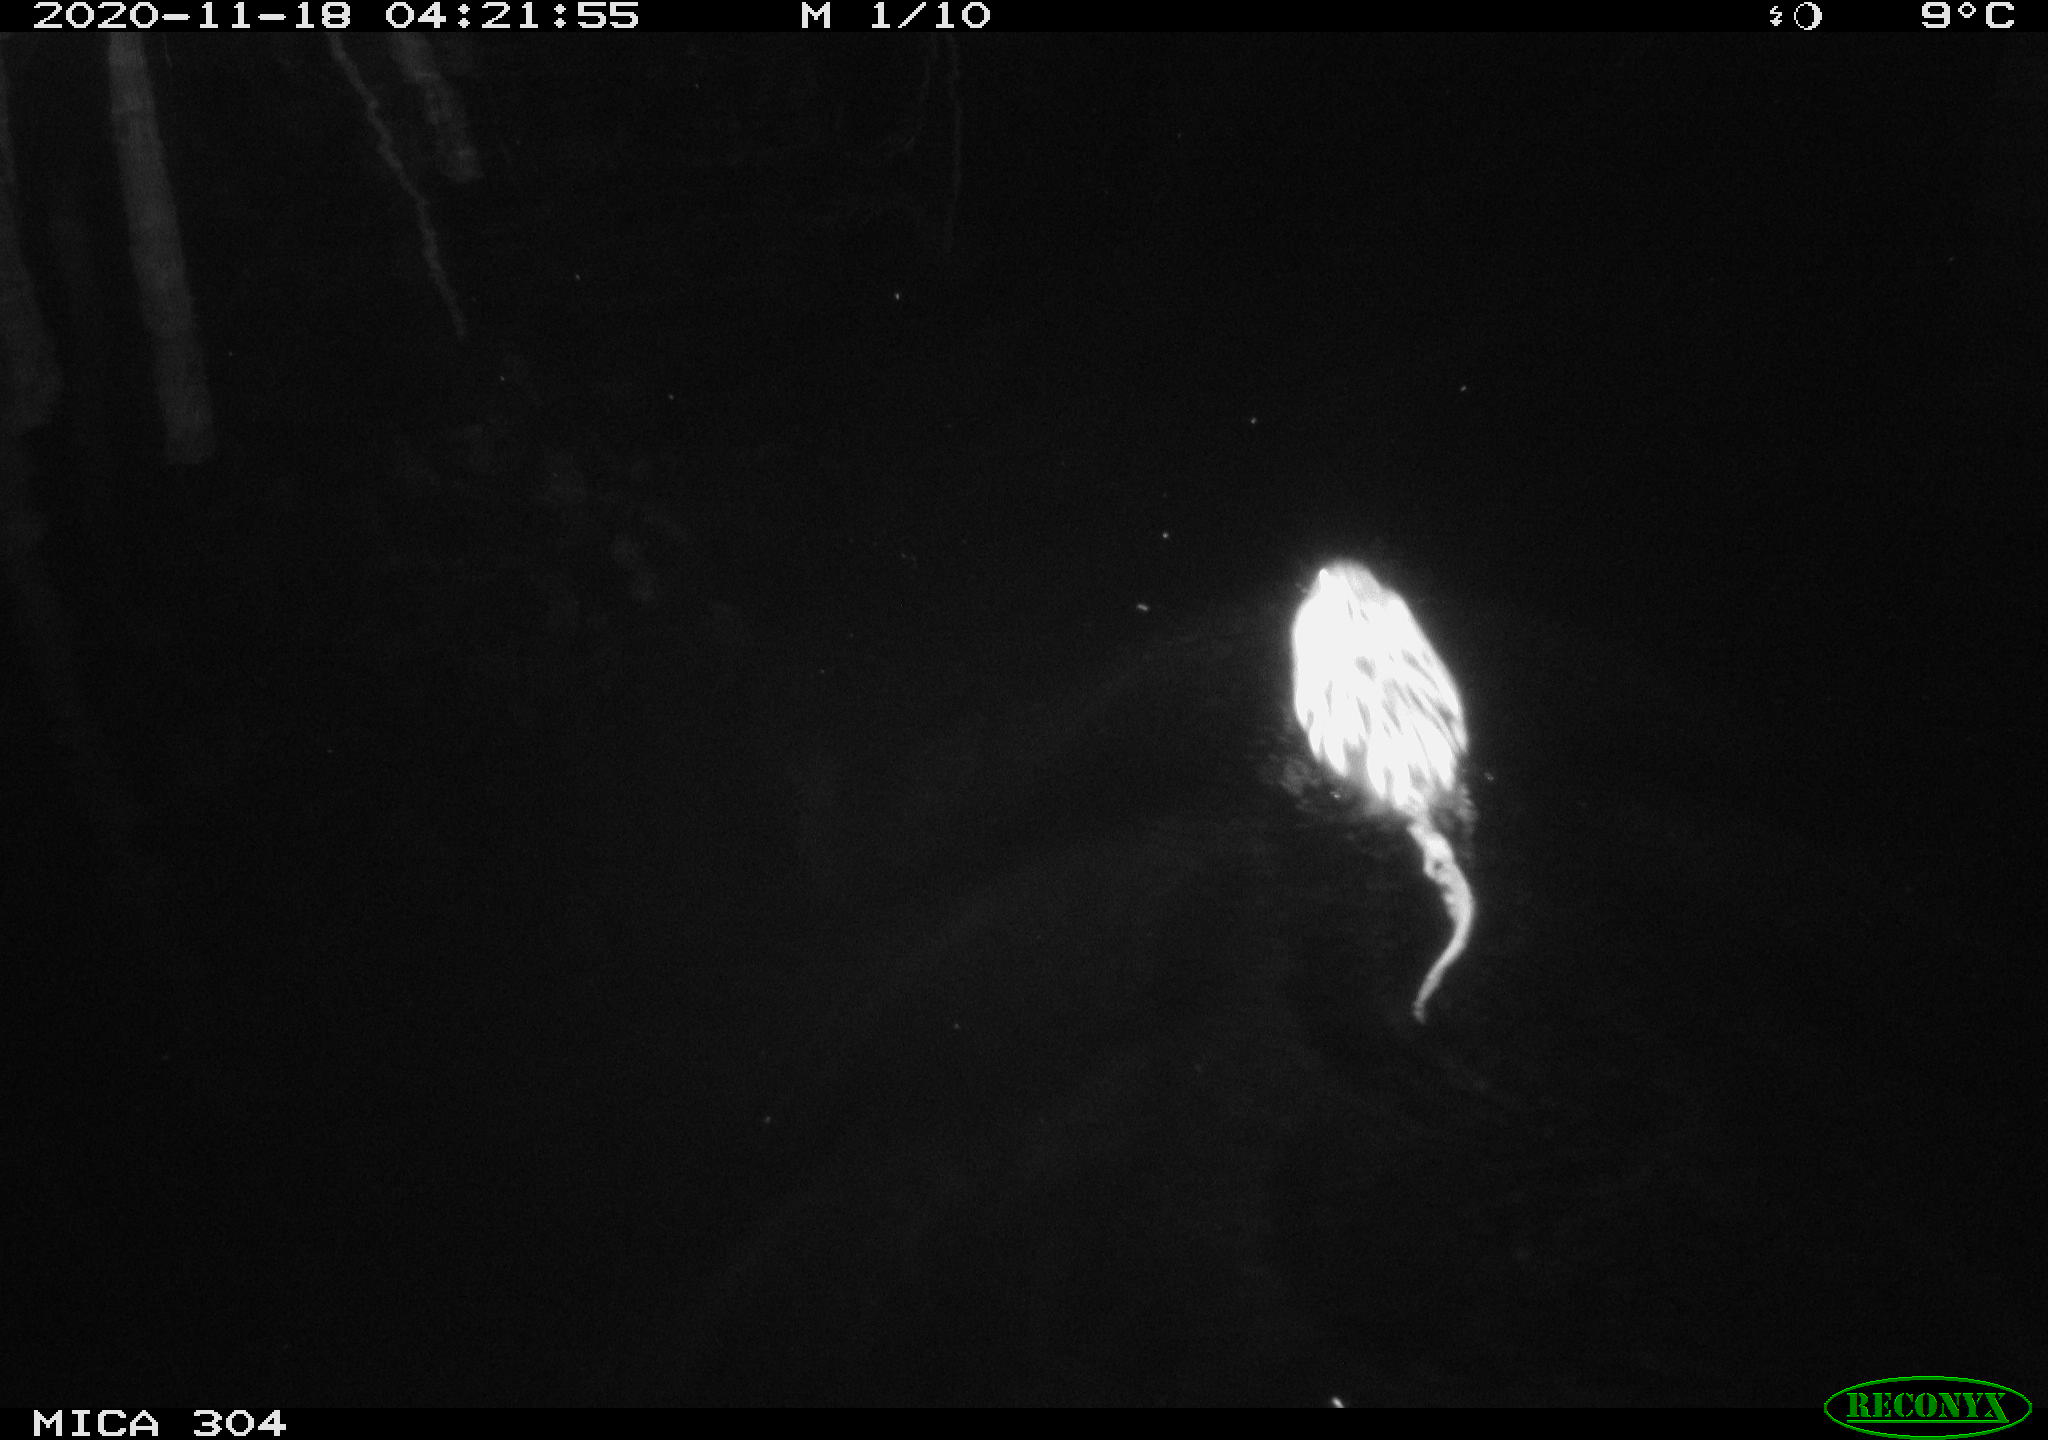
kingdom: Animalia
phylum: Chordata
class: Mammalia
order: Rodentia
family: Cricetidae
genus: Ondatra
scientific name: Ondatra zibethicus
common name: Muskrat
